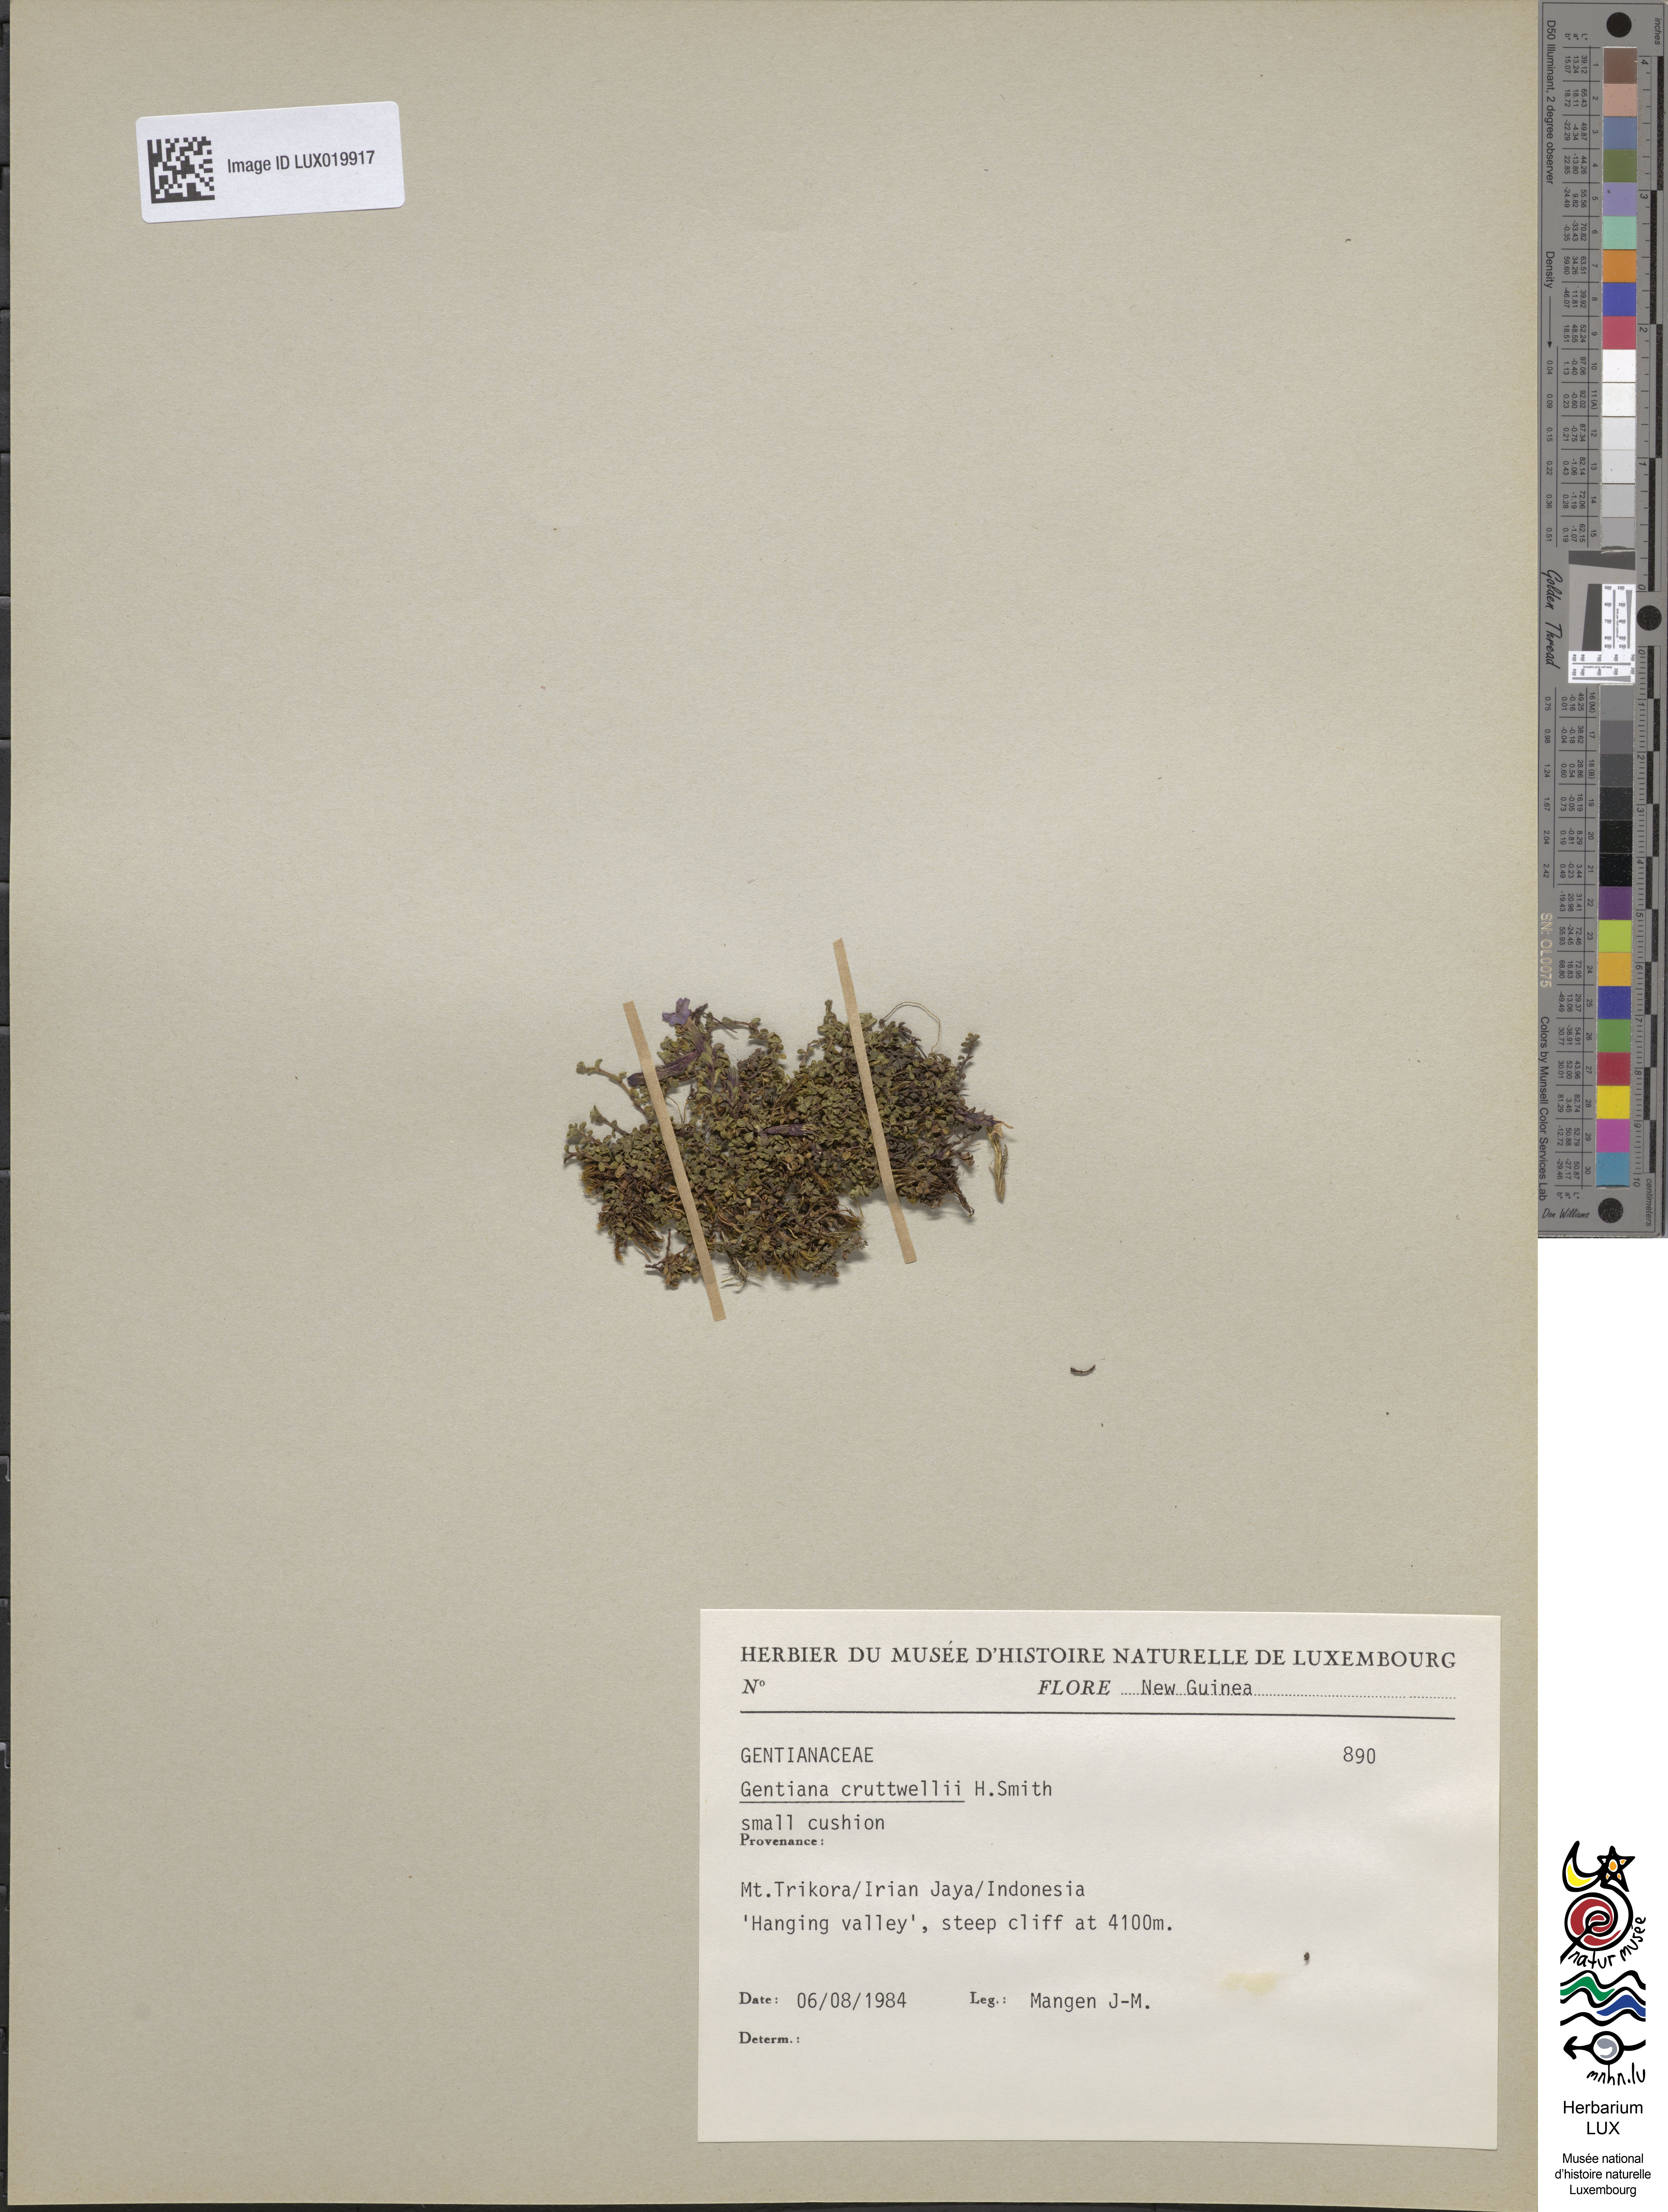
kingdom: Plantae
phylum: Tracheophyta
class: Magnoliopsida
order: Gentianales
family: Gentianaceae
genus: Gentiana
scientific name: Gentiana cruttwellii
